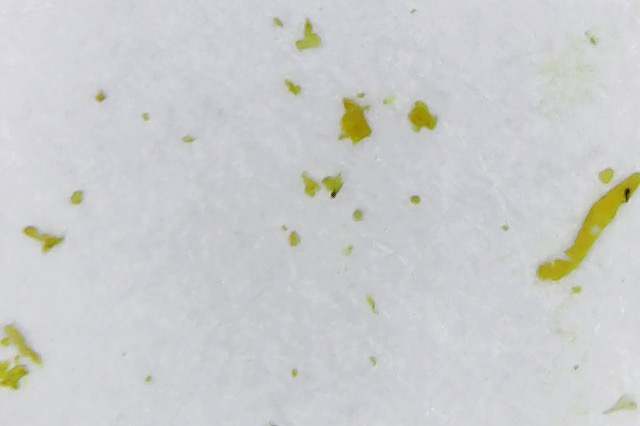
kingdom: Fungi
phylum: Basidiomycota
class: Agaricomycetes
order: Agaricales
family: Clavariaceae
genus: Clavulinopsis
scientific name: Clavulinopsis
